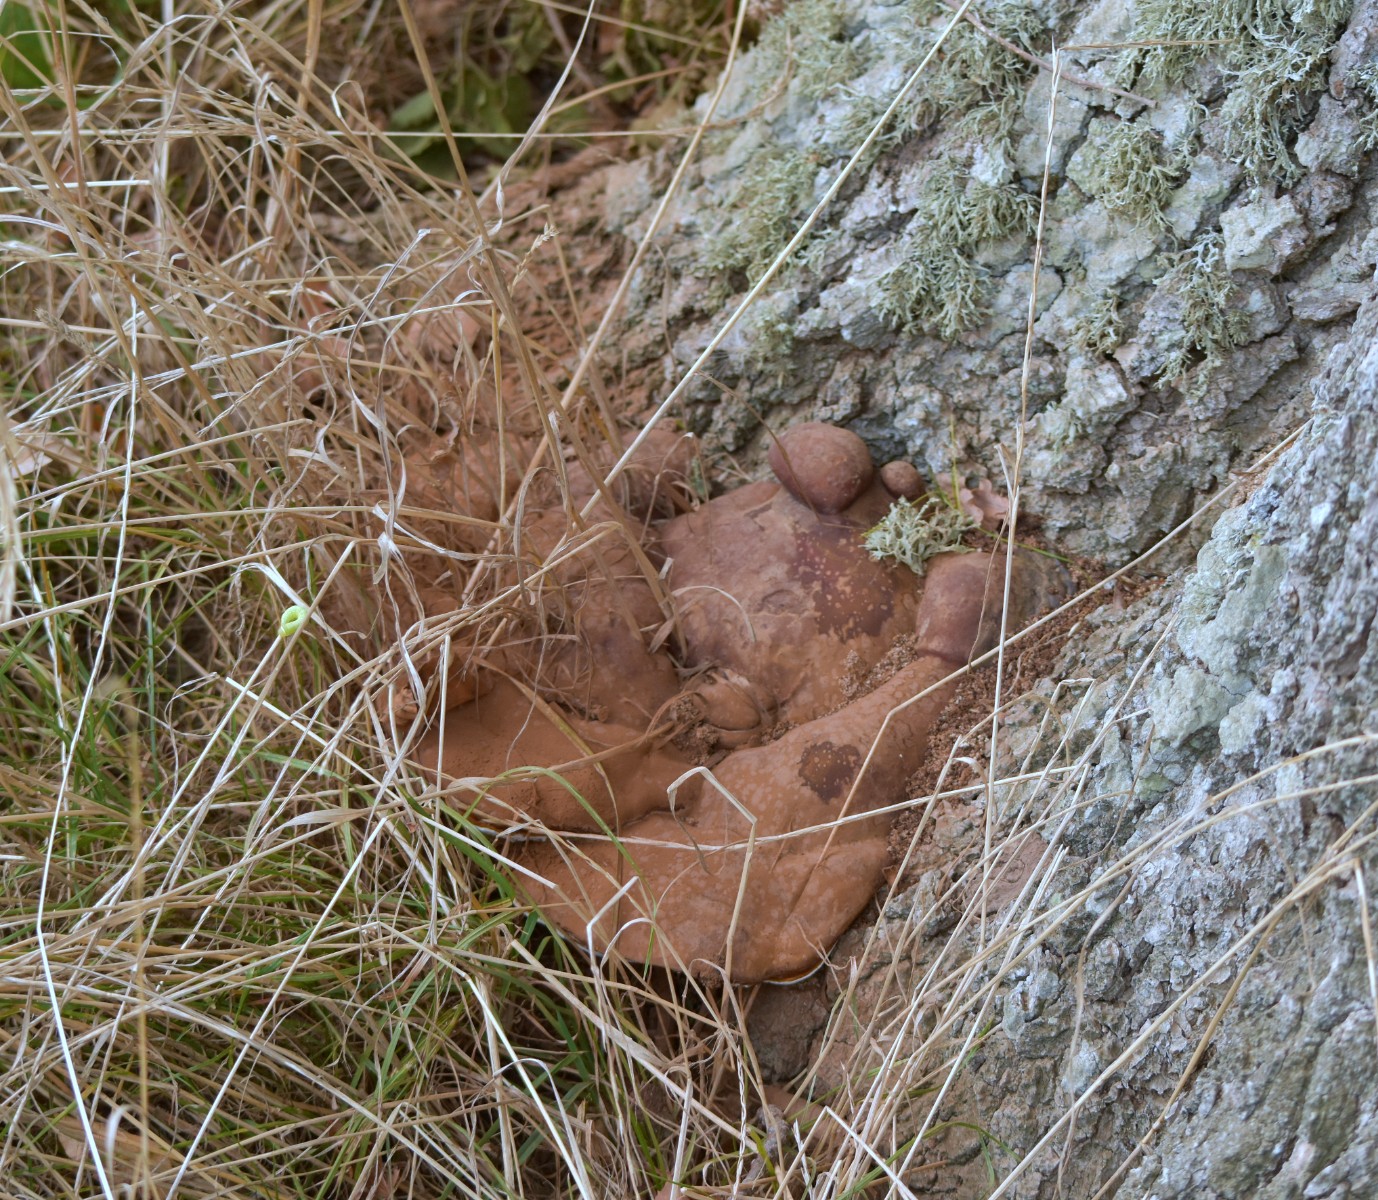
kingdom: Fungi
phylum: Basidiomycota
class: Agaricomycetes
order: Polyporales
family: Polyporaceae
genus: Ganoderma
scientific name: Ganoderma resinaceum
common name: gyldenbrun lakporesvamp
